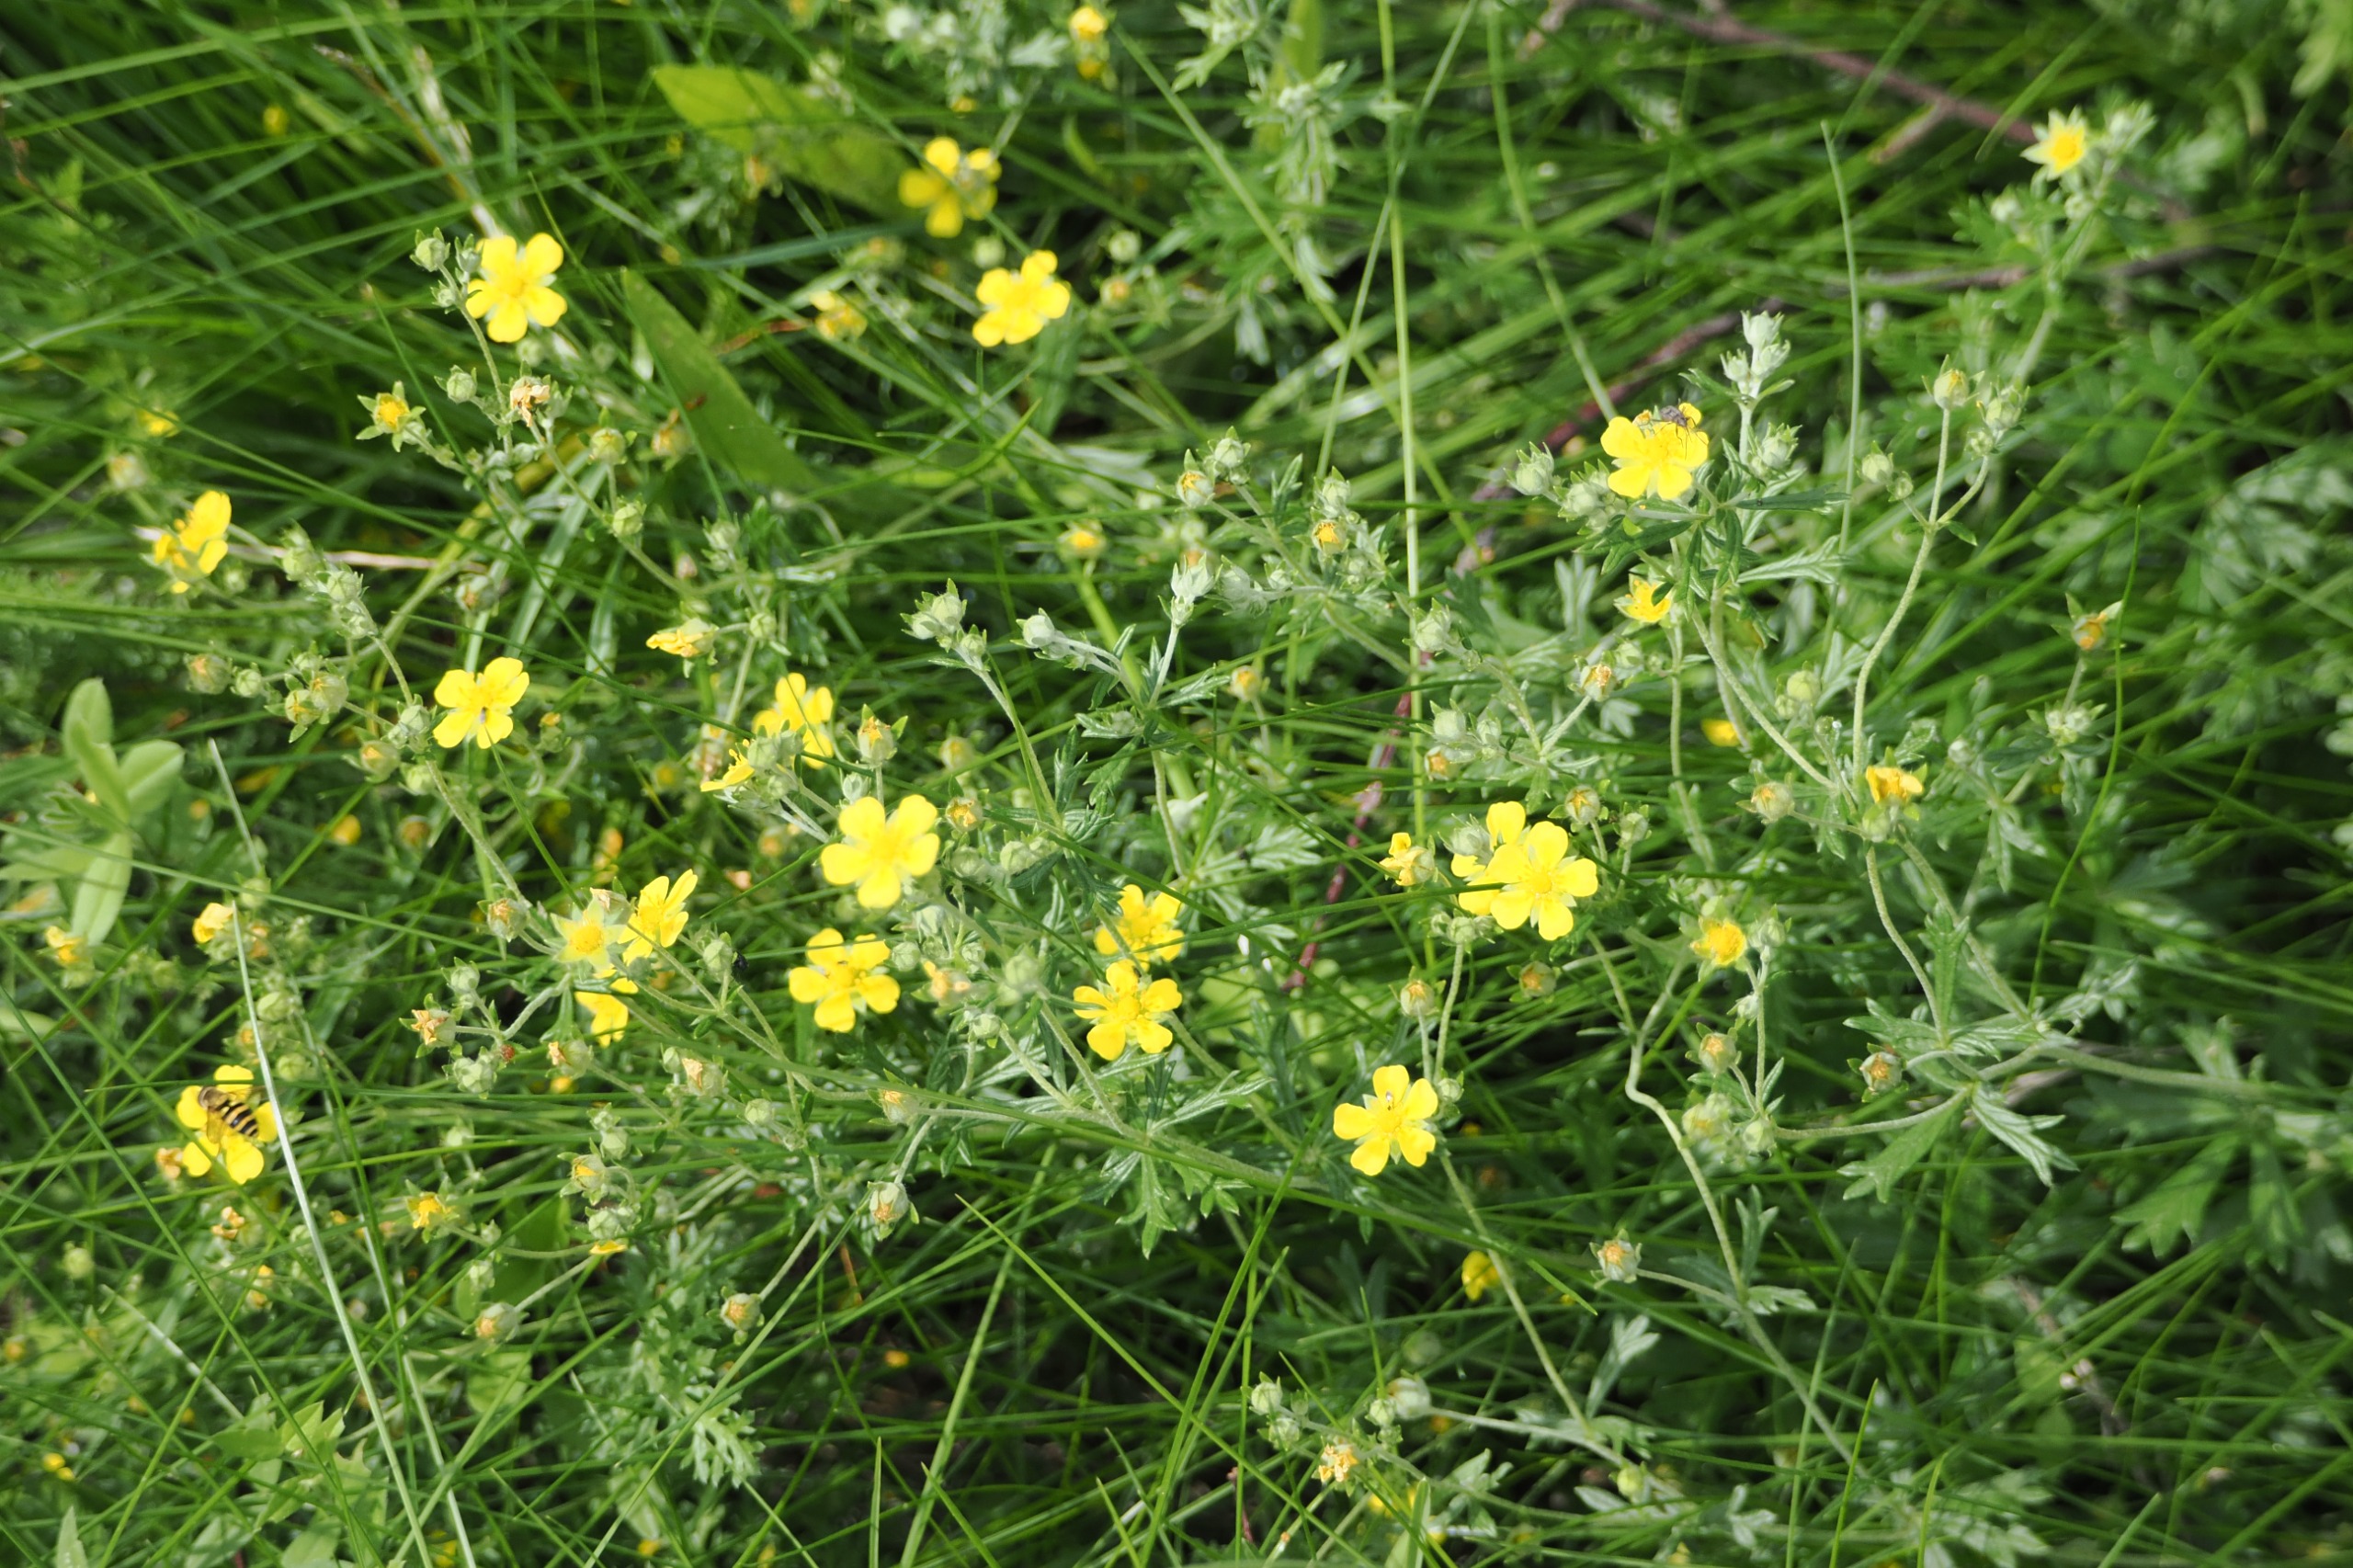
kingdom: Plantae
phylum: Tracheophyta
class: Magnoliopsida
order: Rosales
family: Rosaceae
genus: Potentilla
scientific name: Potentilla argentea
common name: Sølv-potentil
